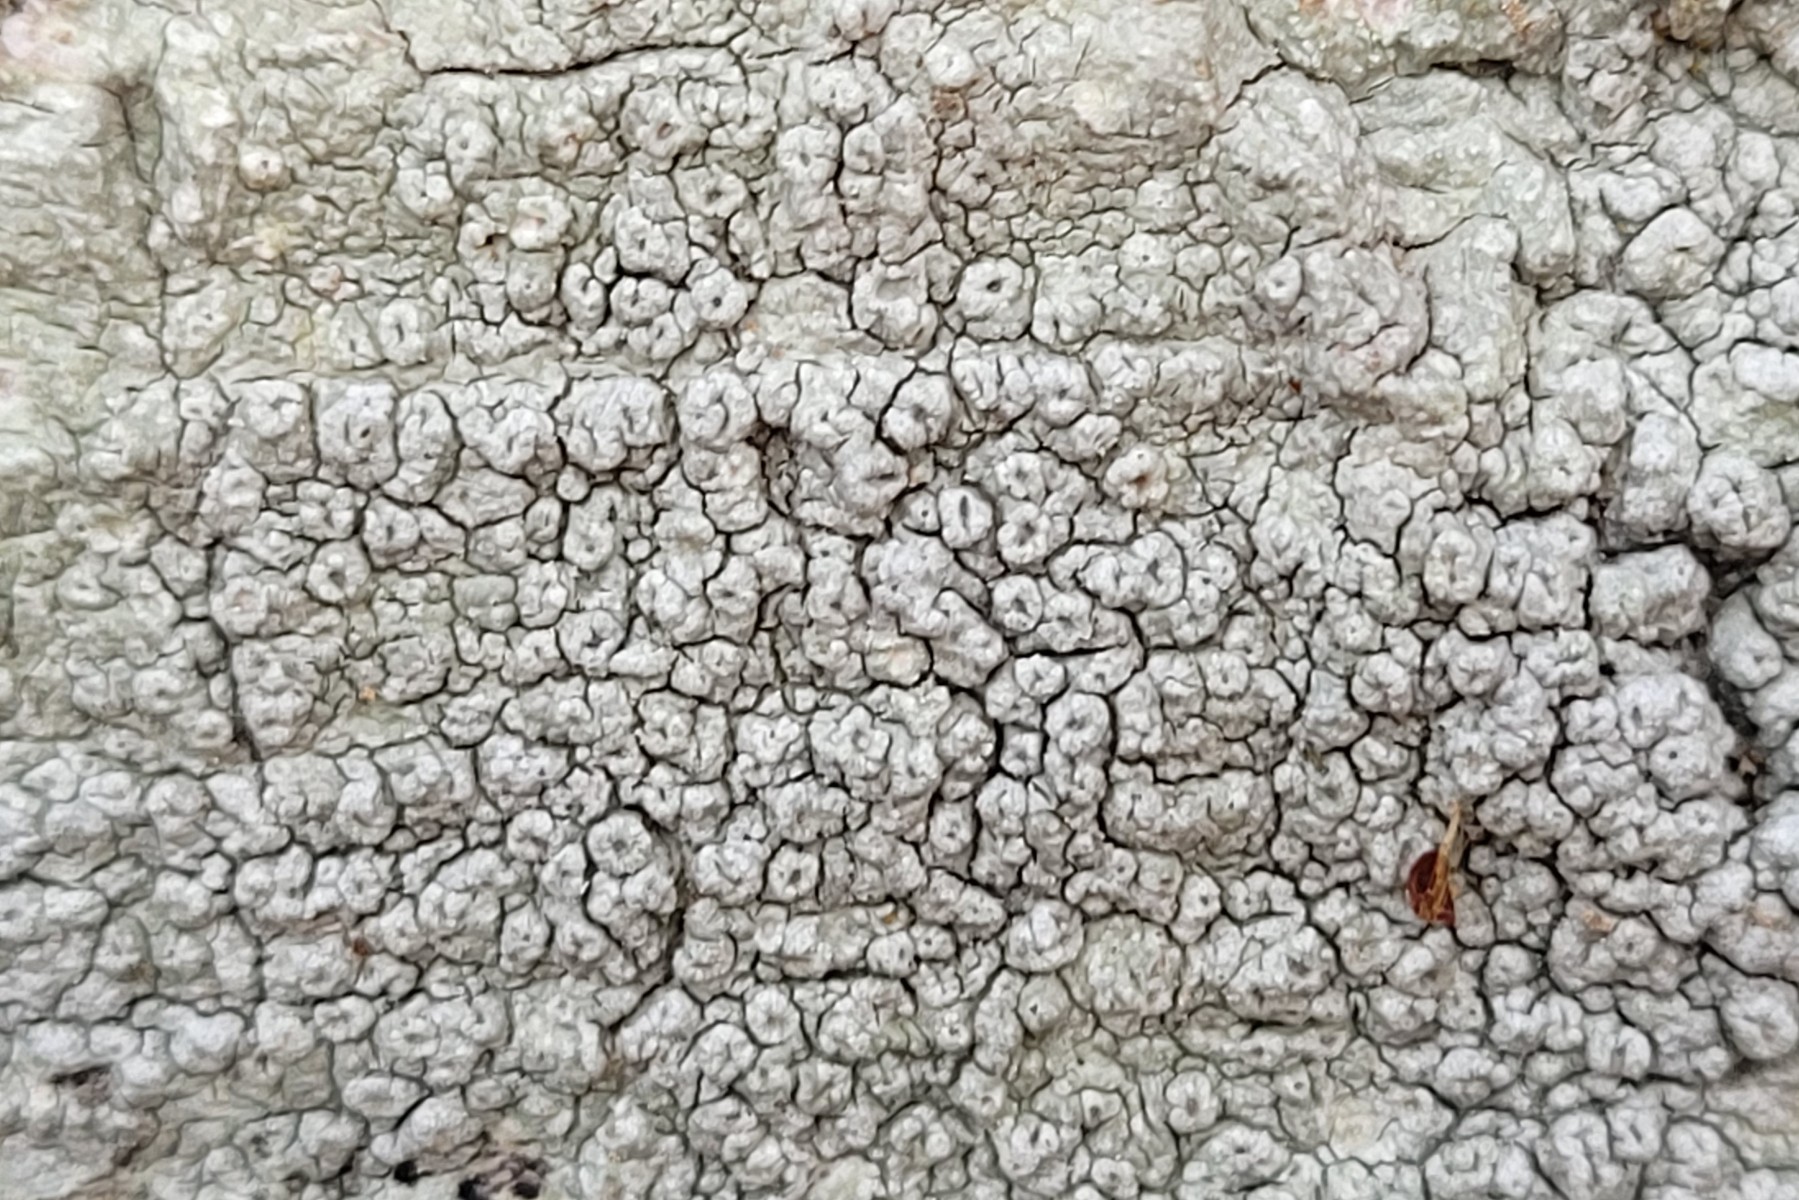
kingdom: Fungi
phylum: Ascomycota
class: Lecanoromycetes
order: Pertusariales
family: Pertusariaceae
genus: Pertusaria
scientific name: Pertusaria hymenea
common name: åben prikvortelav
